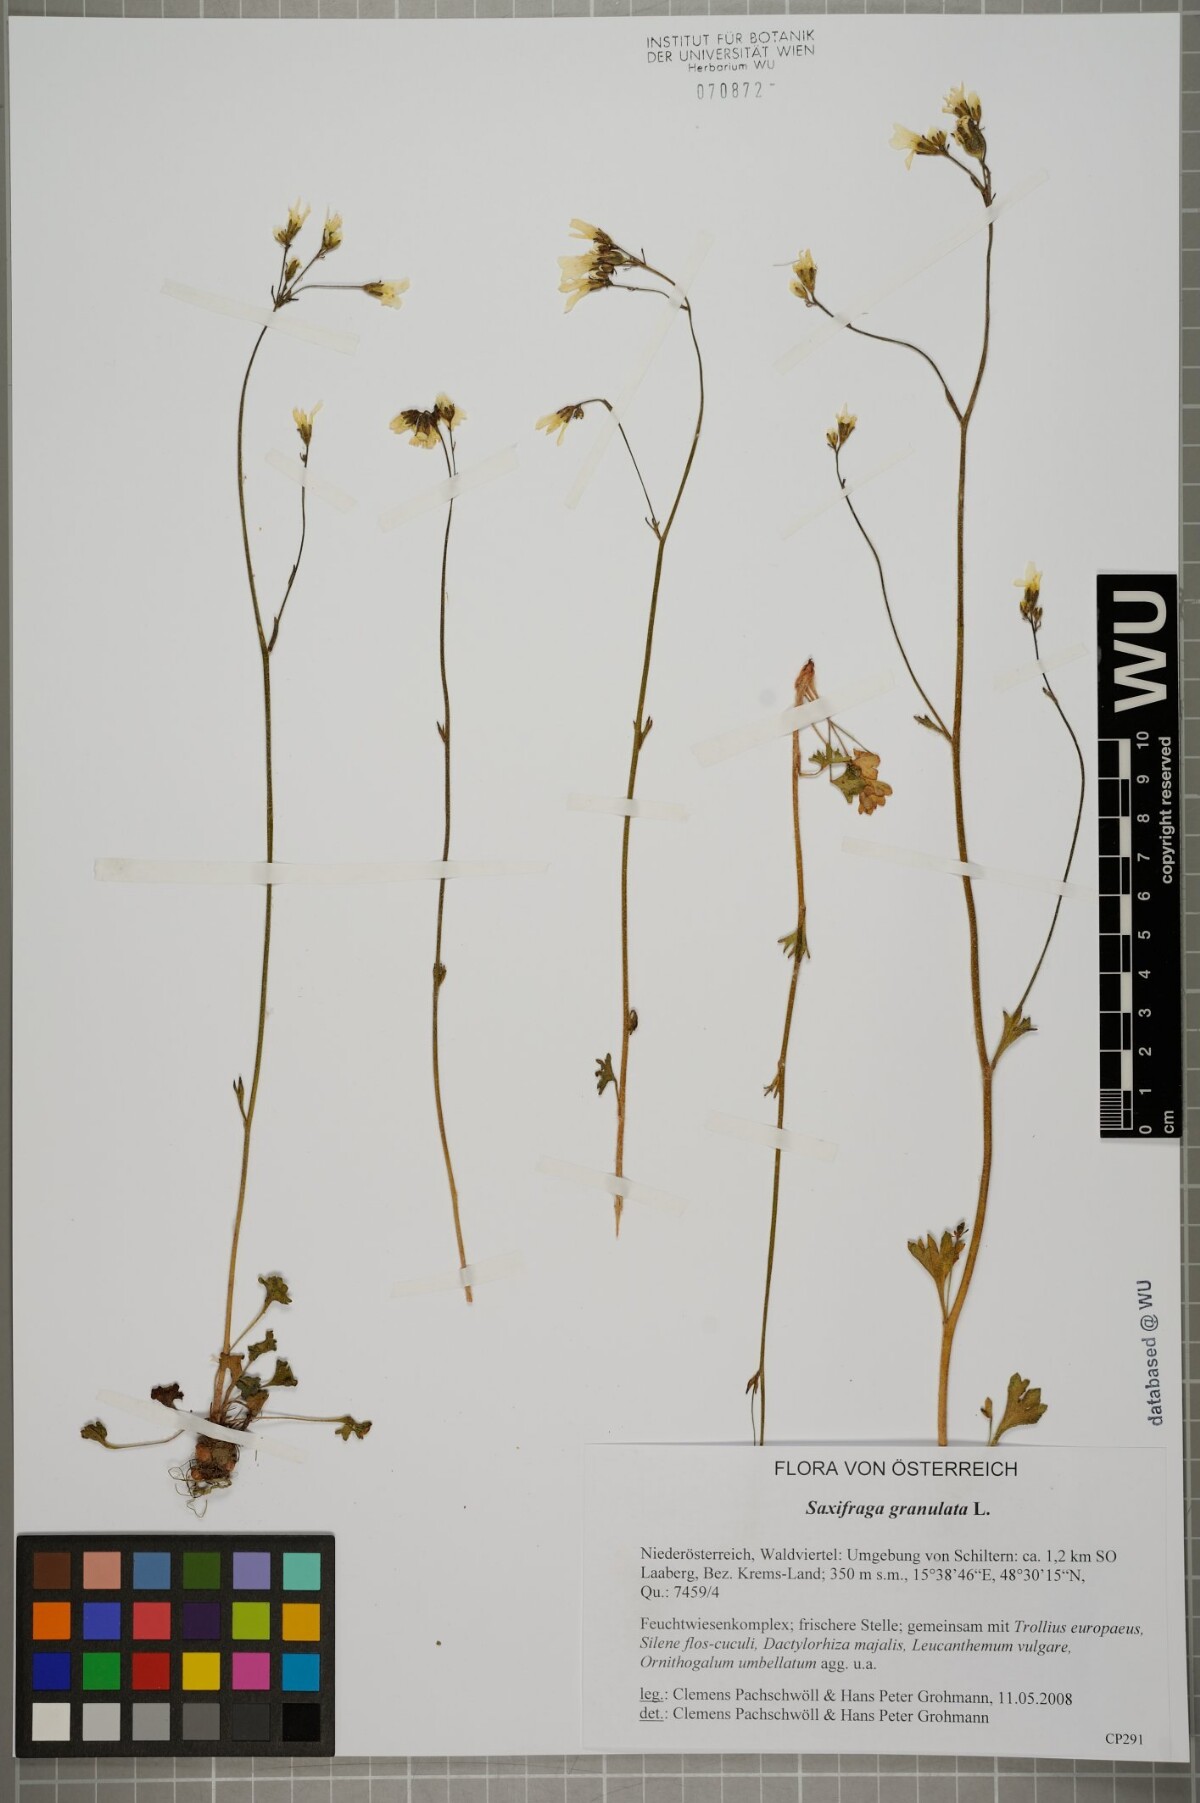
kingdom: Plantae
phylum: Tracheophyta
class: Magnoliopsida
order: Saxifragales
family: Saxifragaceae
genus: Saxifraga
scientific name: Saxifraga granulata
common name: Meadow saxifrage
